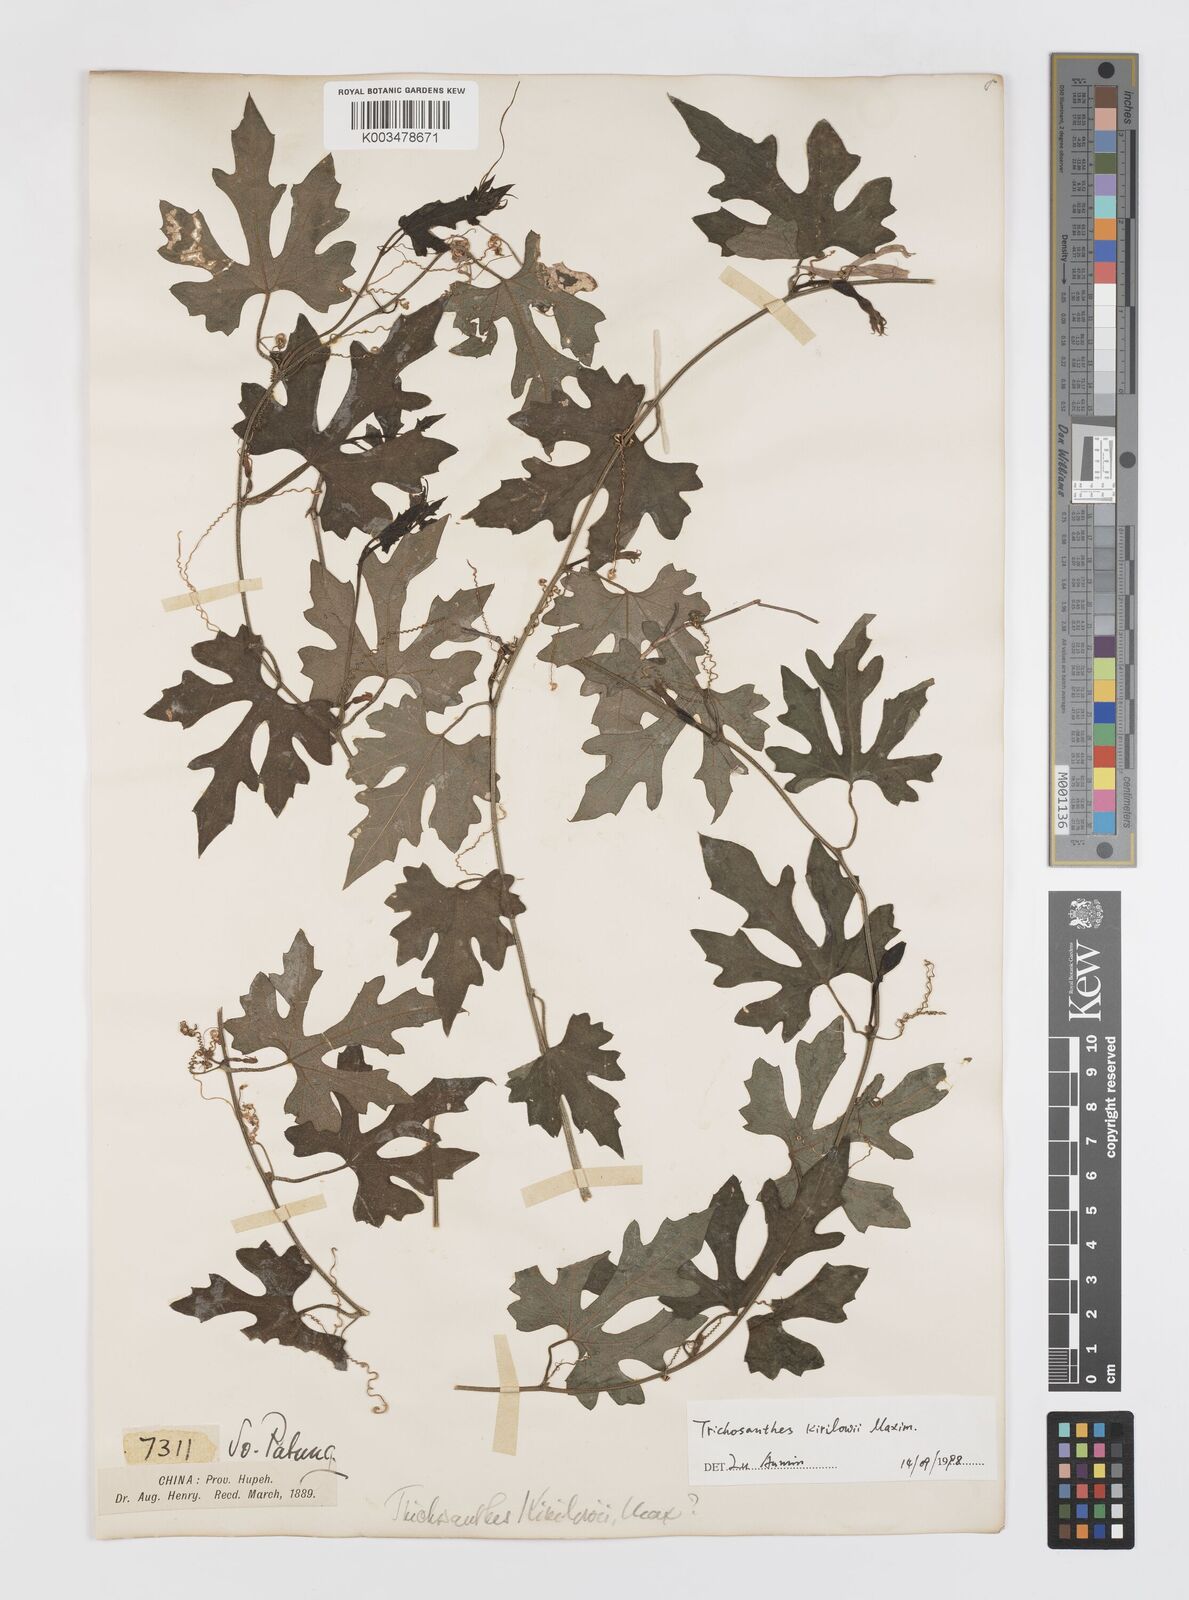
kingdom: Plantae
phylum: Tracheophyta
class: Magnoliopsida
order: Cucurbitales
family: Cucurbitaceae
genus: Trichosanthes
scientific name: Trichosanthes kirilowii
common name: Chinese-cucumber
